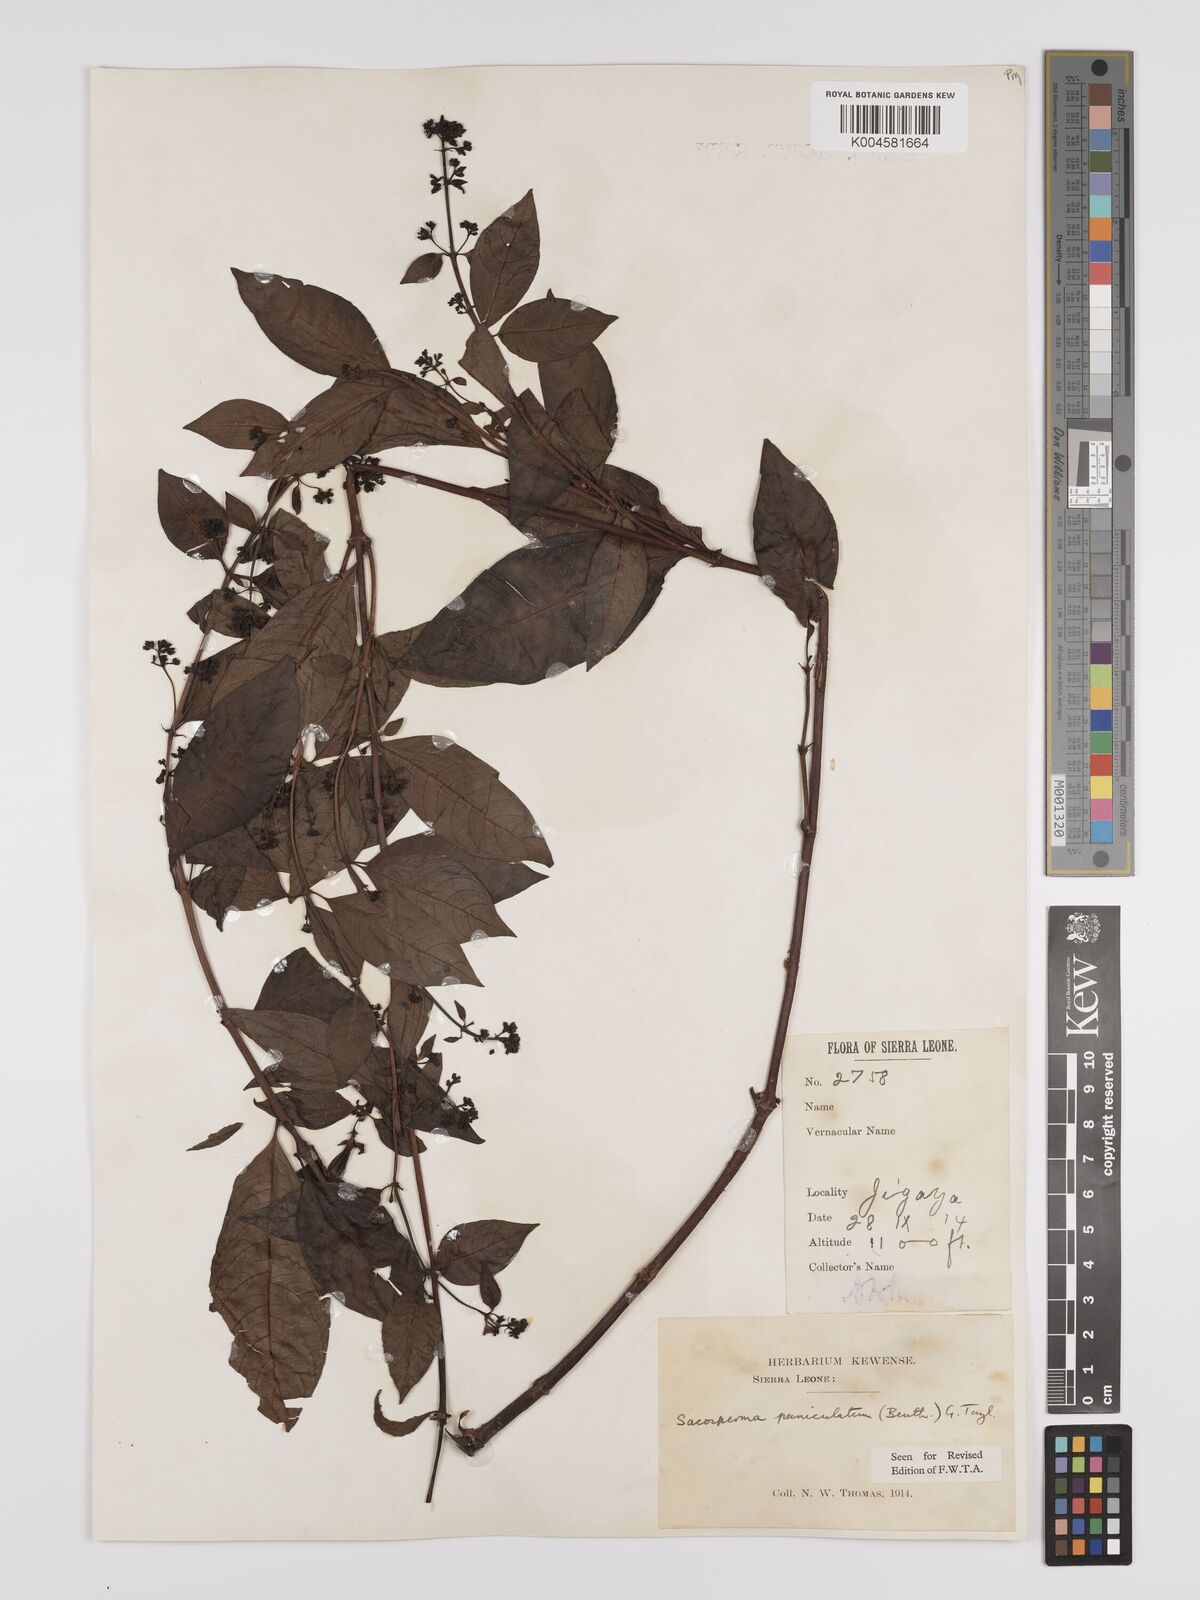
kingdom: Plantae
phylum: Tracheophyta
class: Magnoliopsida
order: Gentianales
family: Rubiaceae
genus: Sacosperma
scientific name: Sacosperma paniculatum
